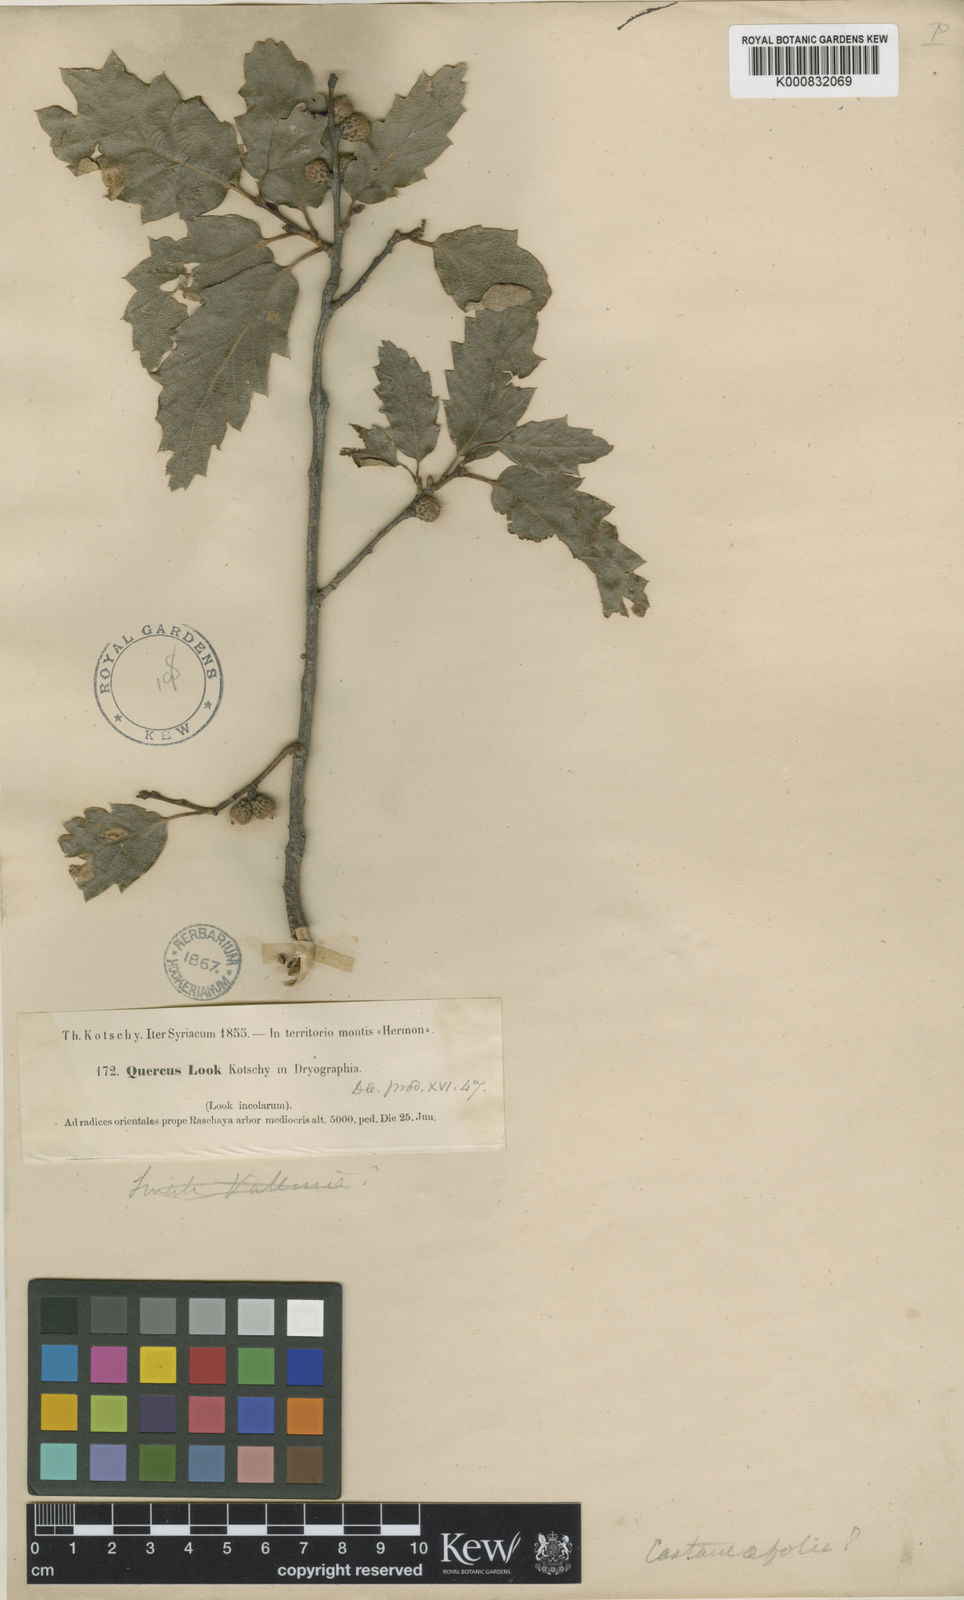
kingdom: Plantae
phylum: Tracheophyta
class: Magnoliopsida
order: Fagales
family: Fagaceae
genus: Quercus
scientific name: Quercus look
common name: Look oak
